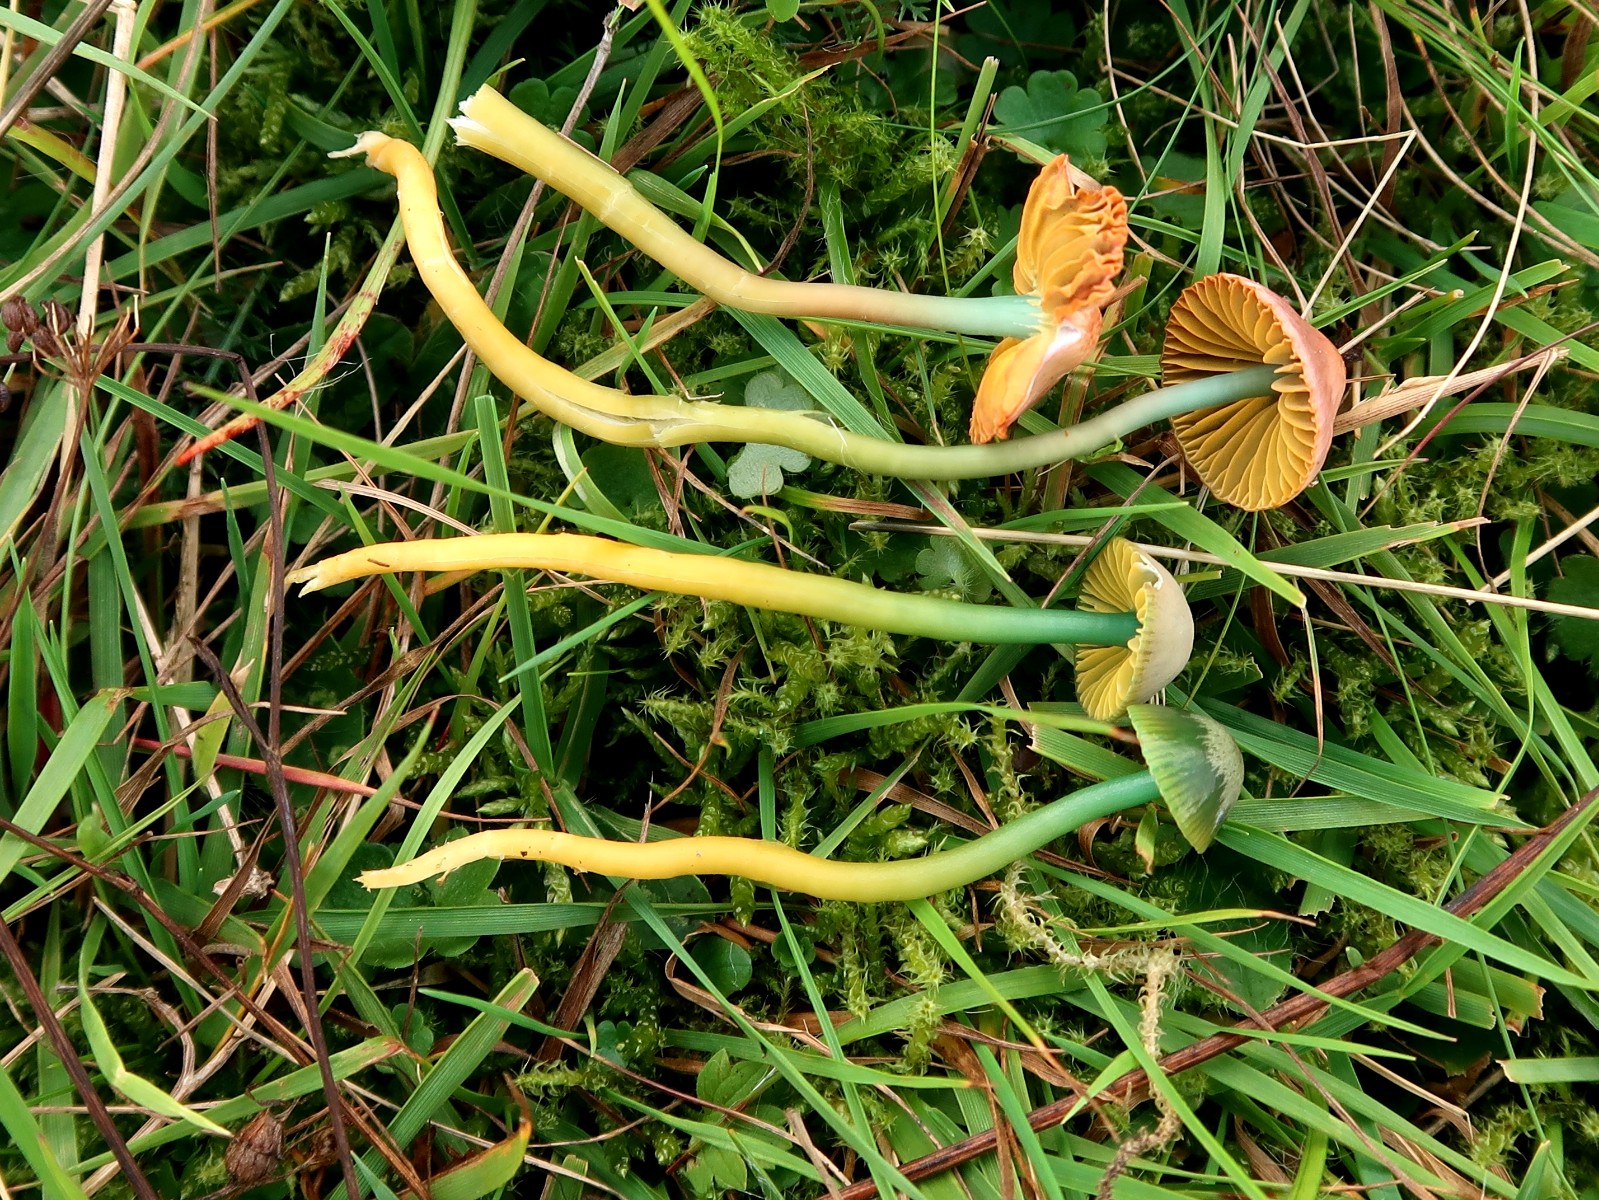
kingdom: Fungi
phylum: Basidiomycota
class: Agaricomycetes
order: Agaricales
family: Hygrophoraceae
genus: Gliophorus
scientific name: Gliophorus psittacinus
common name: papegøje-vokshat
